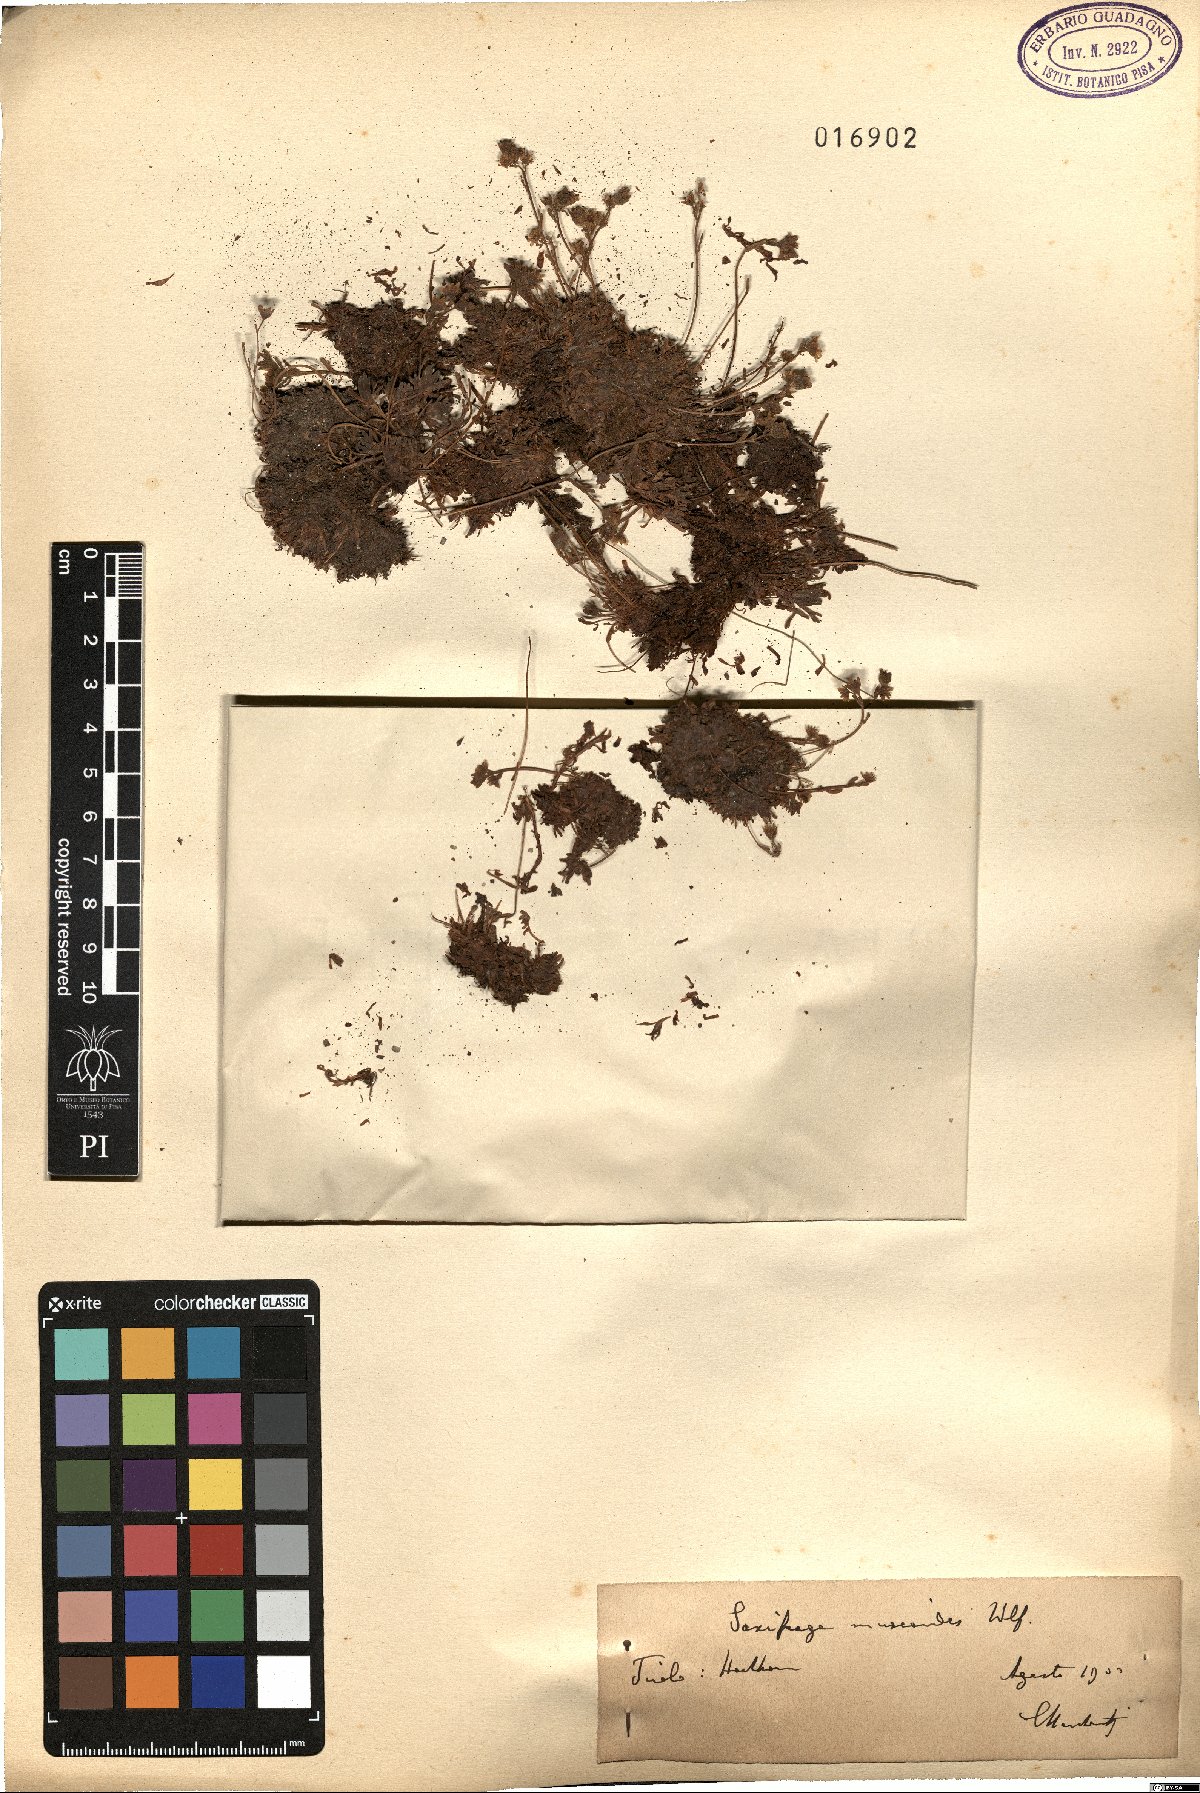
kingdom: Plantae
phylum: Tracheophyta
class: Magnoliopsida
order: Saxifragales
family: Saxifragaceae
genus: Saxifraga
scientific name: Saxifraga moschata
